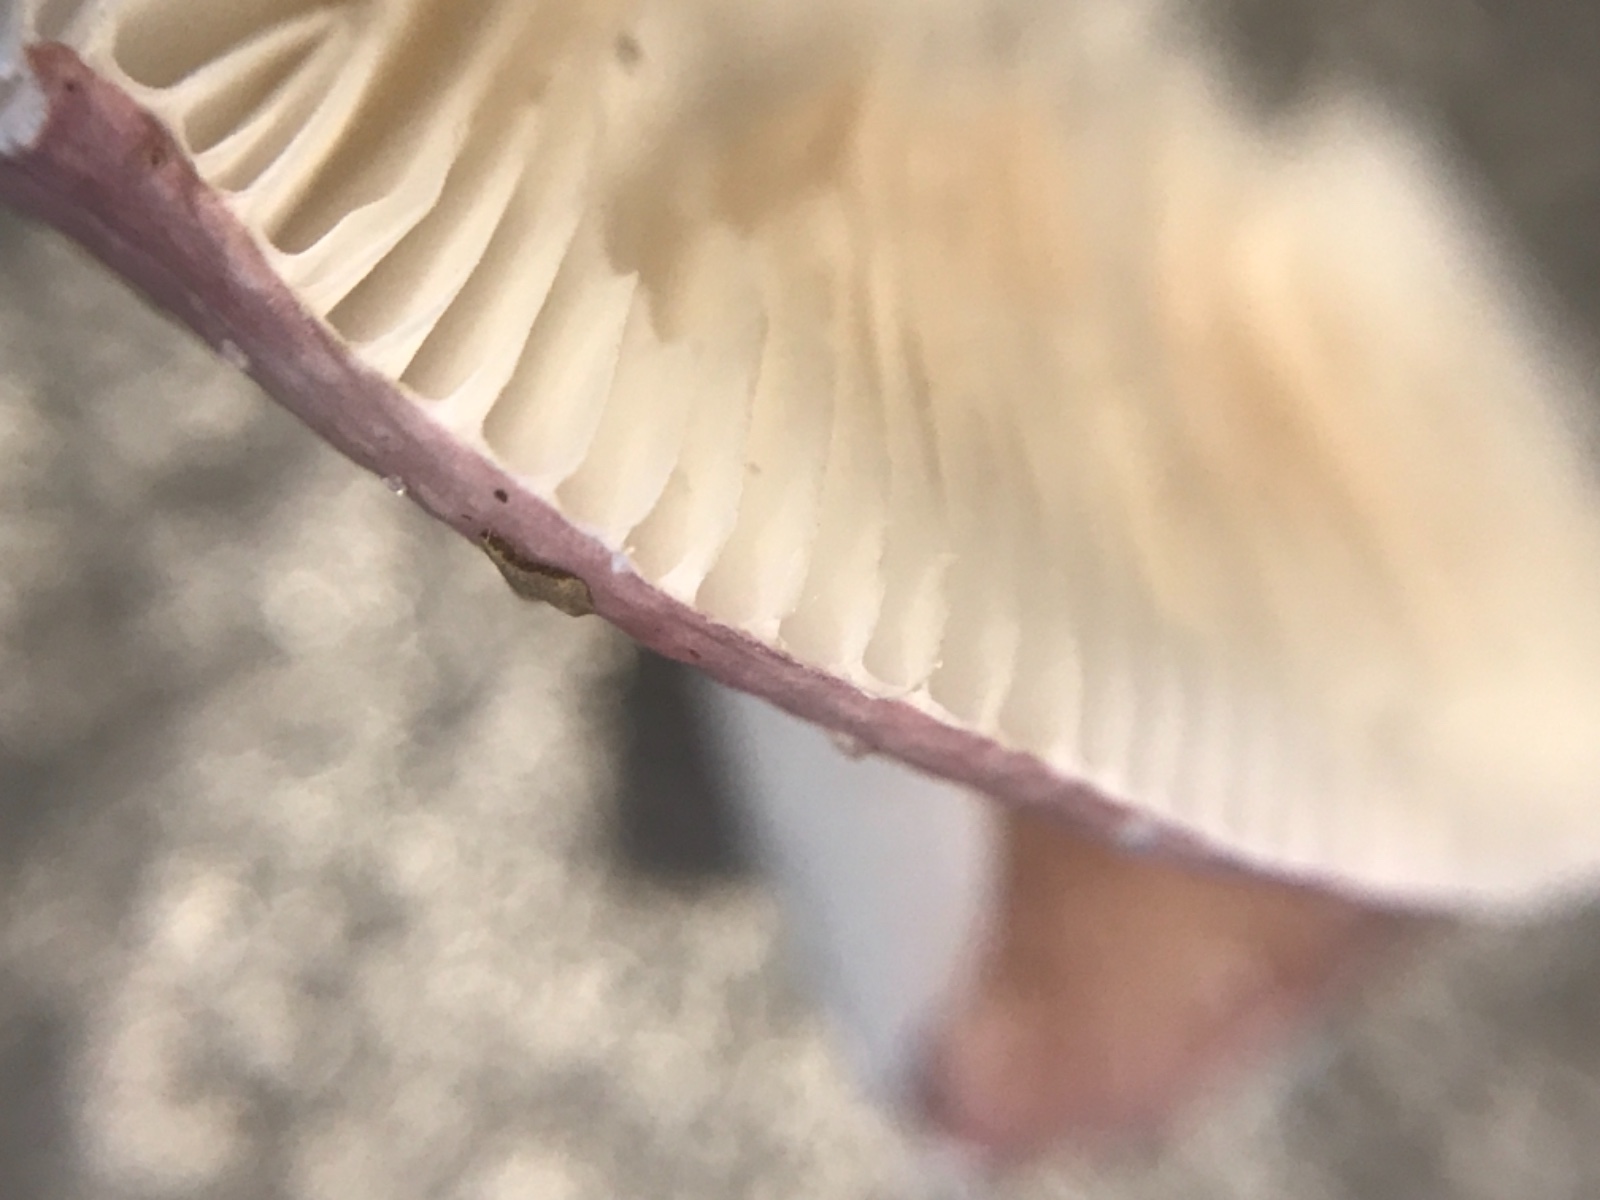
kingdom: Fungi
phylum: Basidiomycota
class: Agaricomycetes
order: Russulales
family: Russulaceae
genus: Russula
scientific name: Russula
